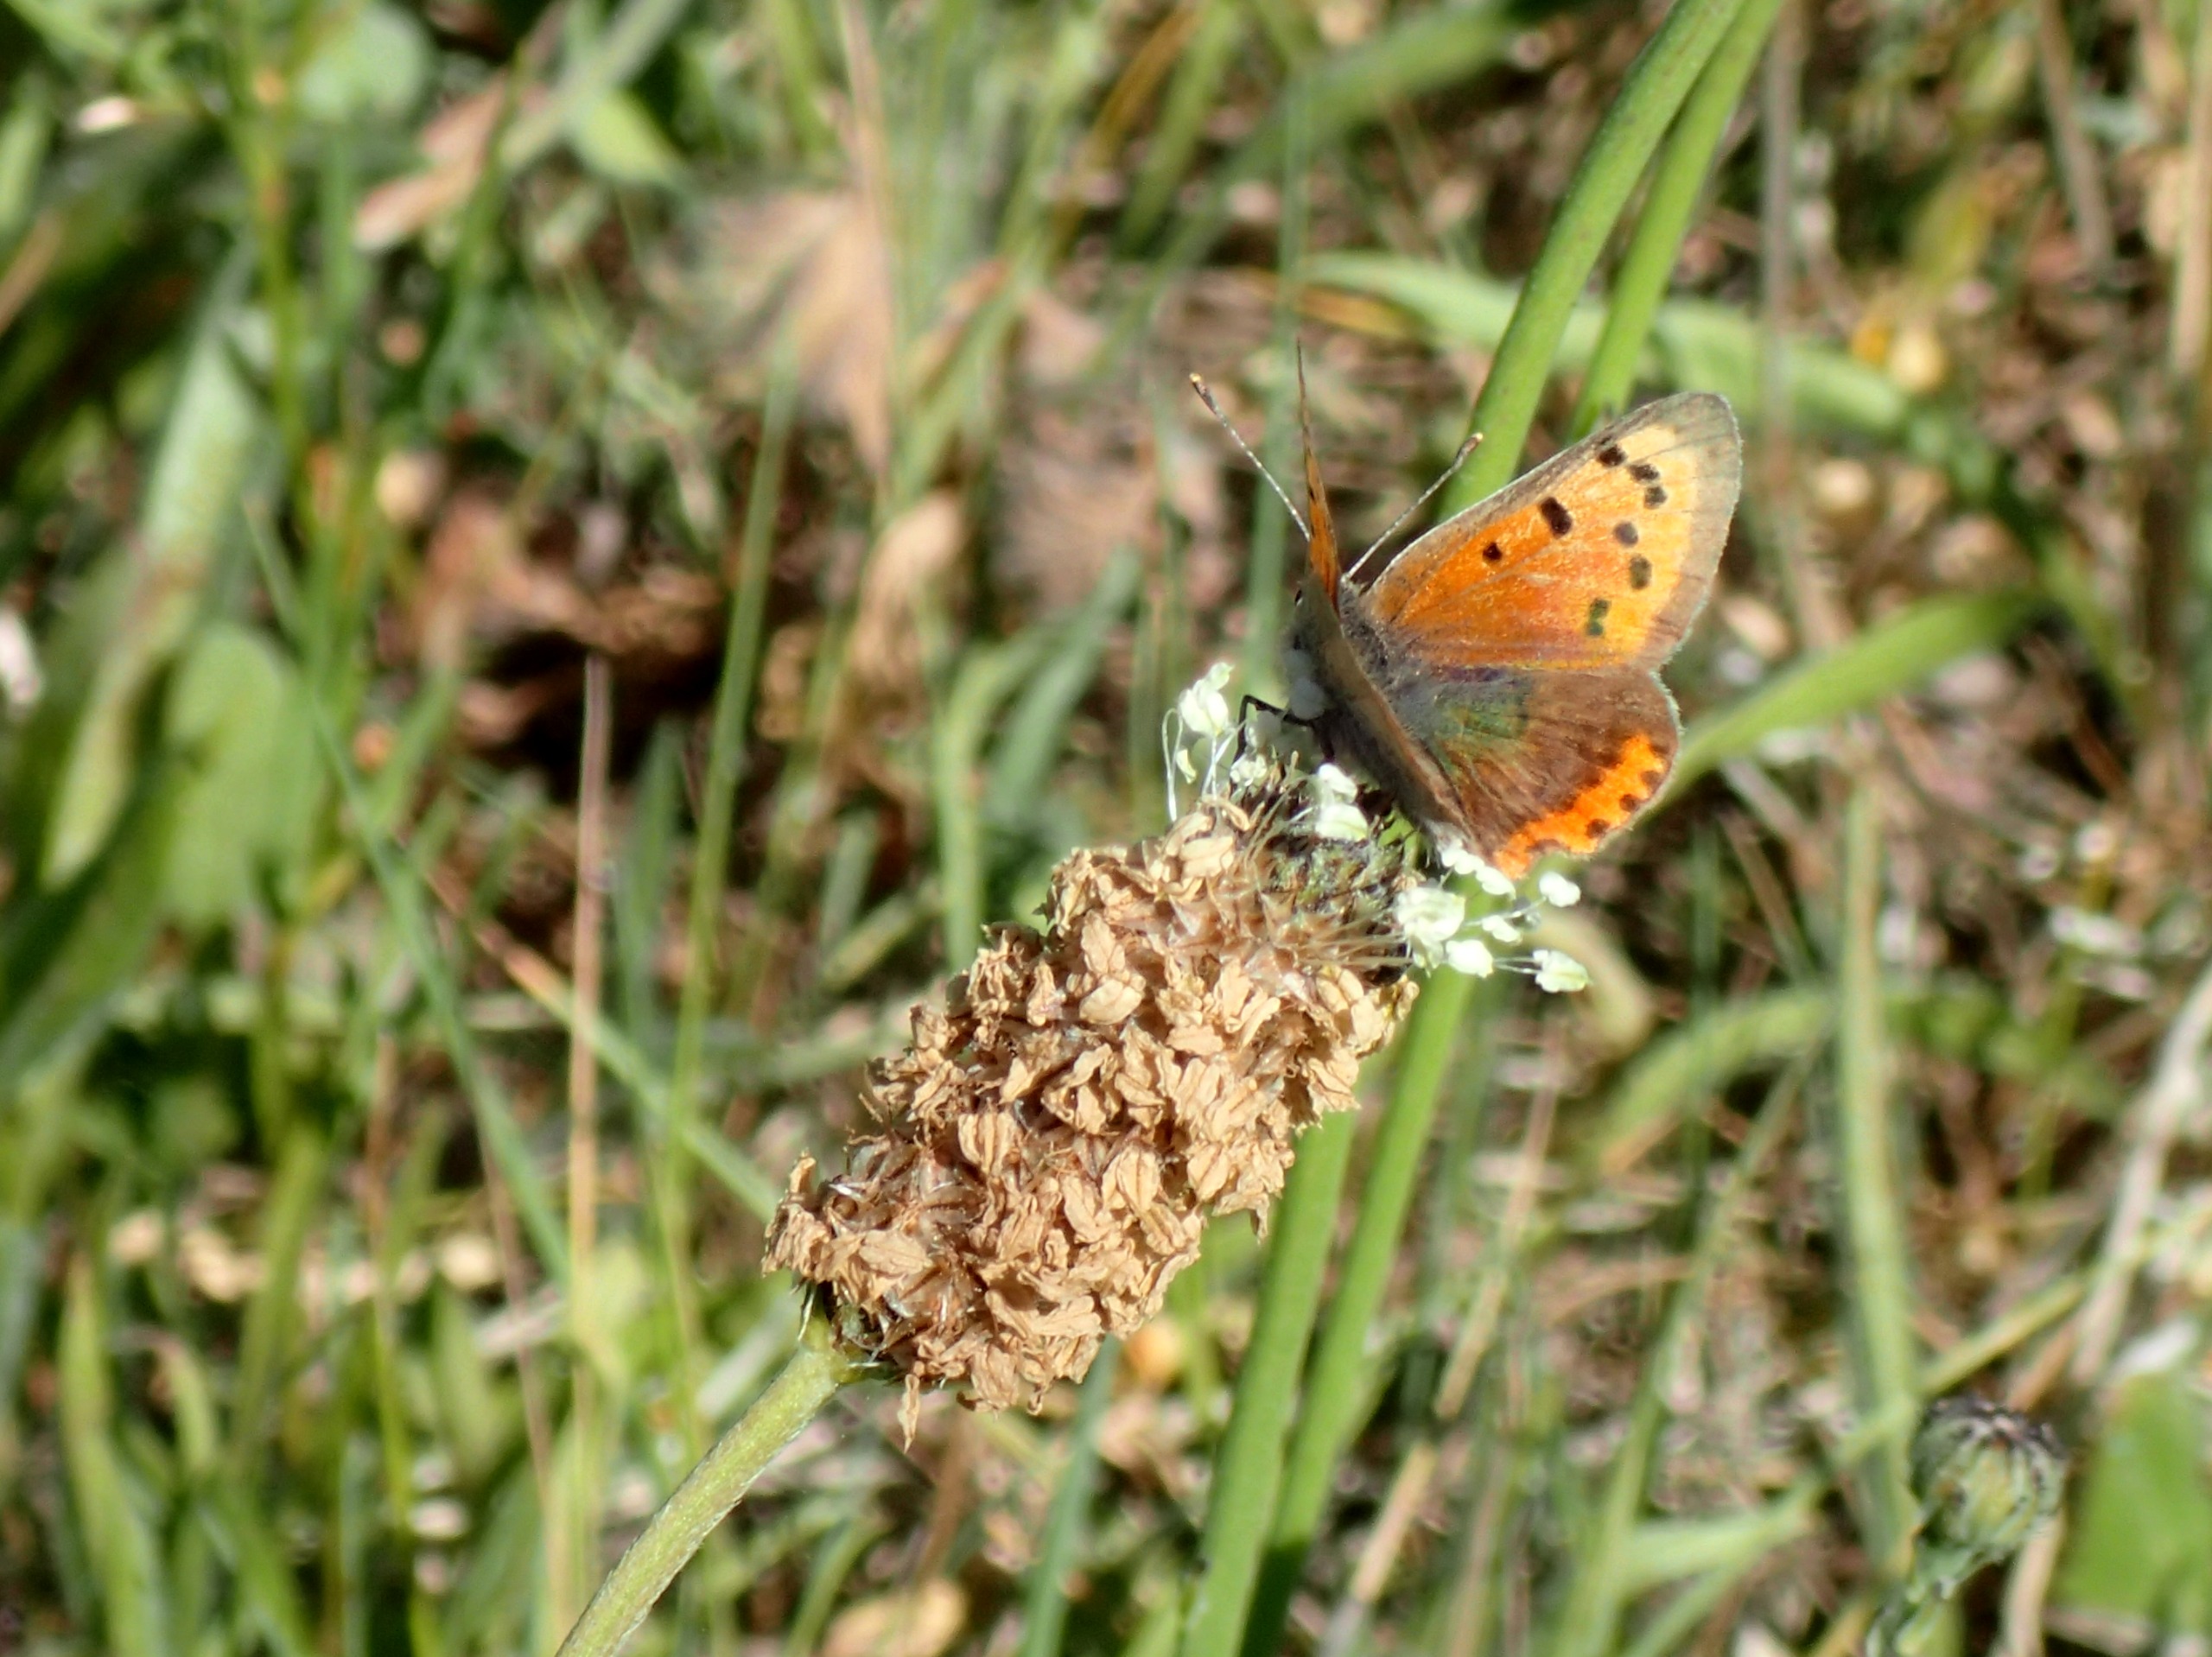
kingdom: Animalia
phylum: Arthropoda
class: Insecta
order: Lepidoptera
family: Lycaenidae
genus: Lycaena
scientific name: Lycaena phlaeas
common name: Lille ildfugl
